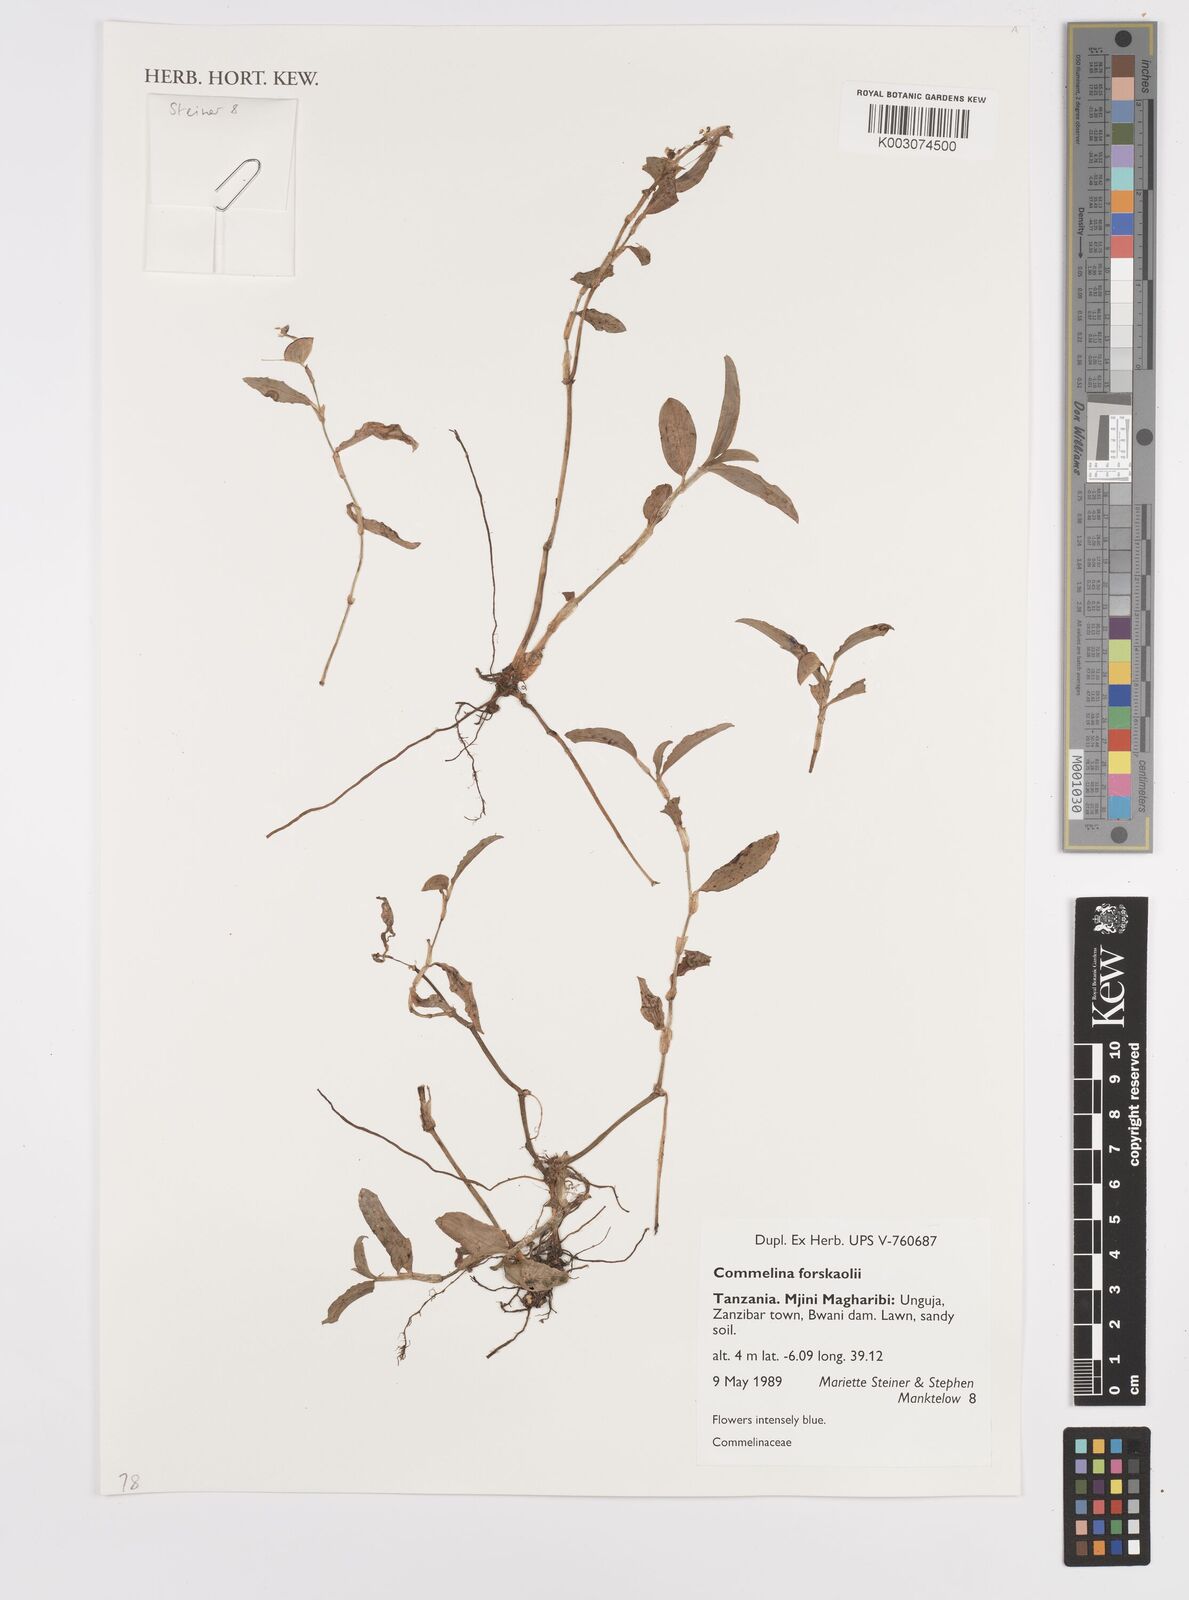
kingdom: Plantae
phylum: Tracheophyta
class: Liliopsida
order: Commelinales
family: Commelinaceae
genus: Commelina
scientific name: Commelina forskaolii
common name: Rat's ear
